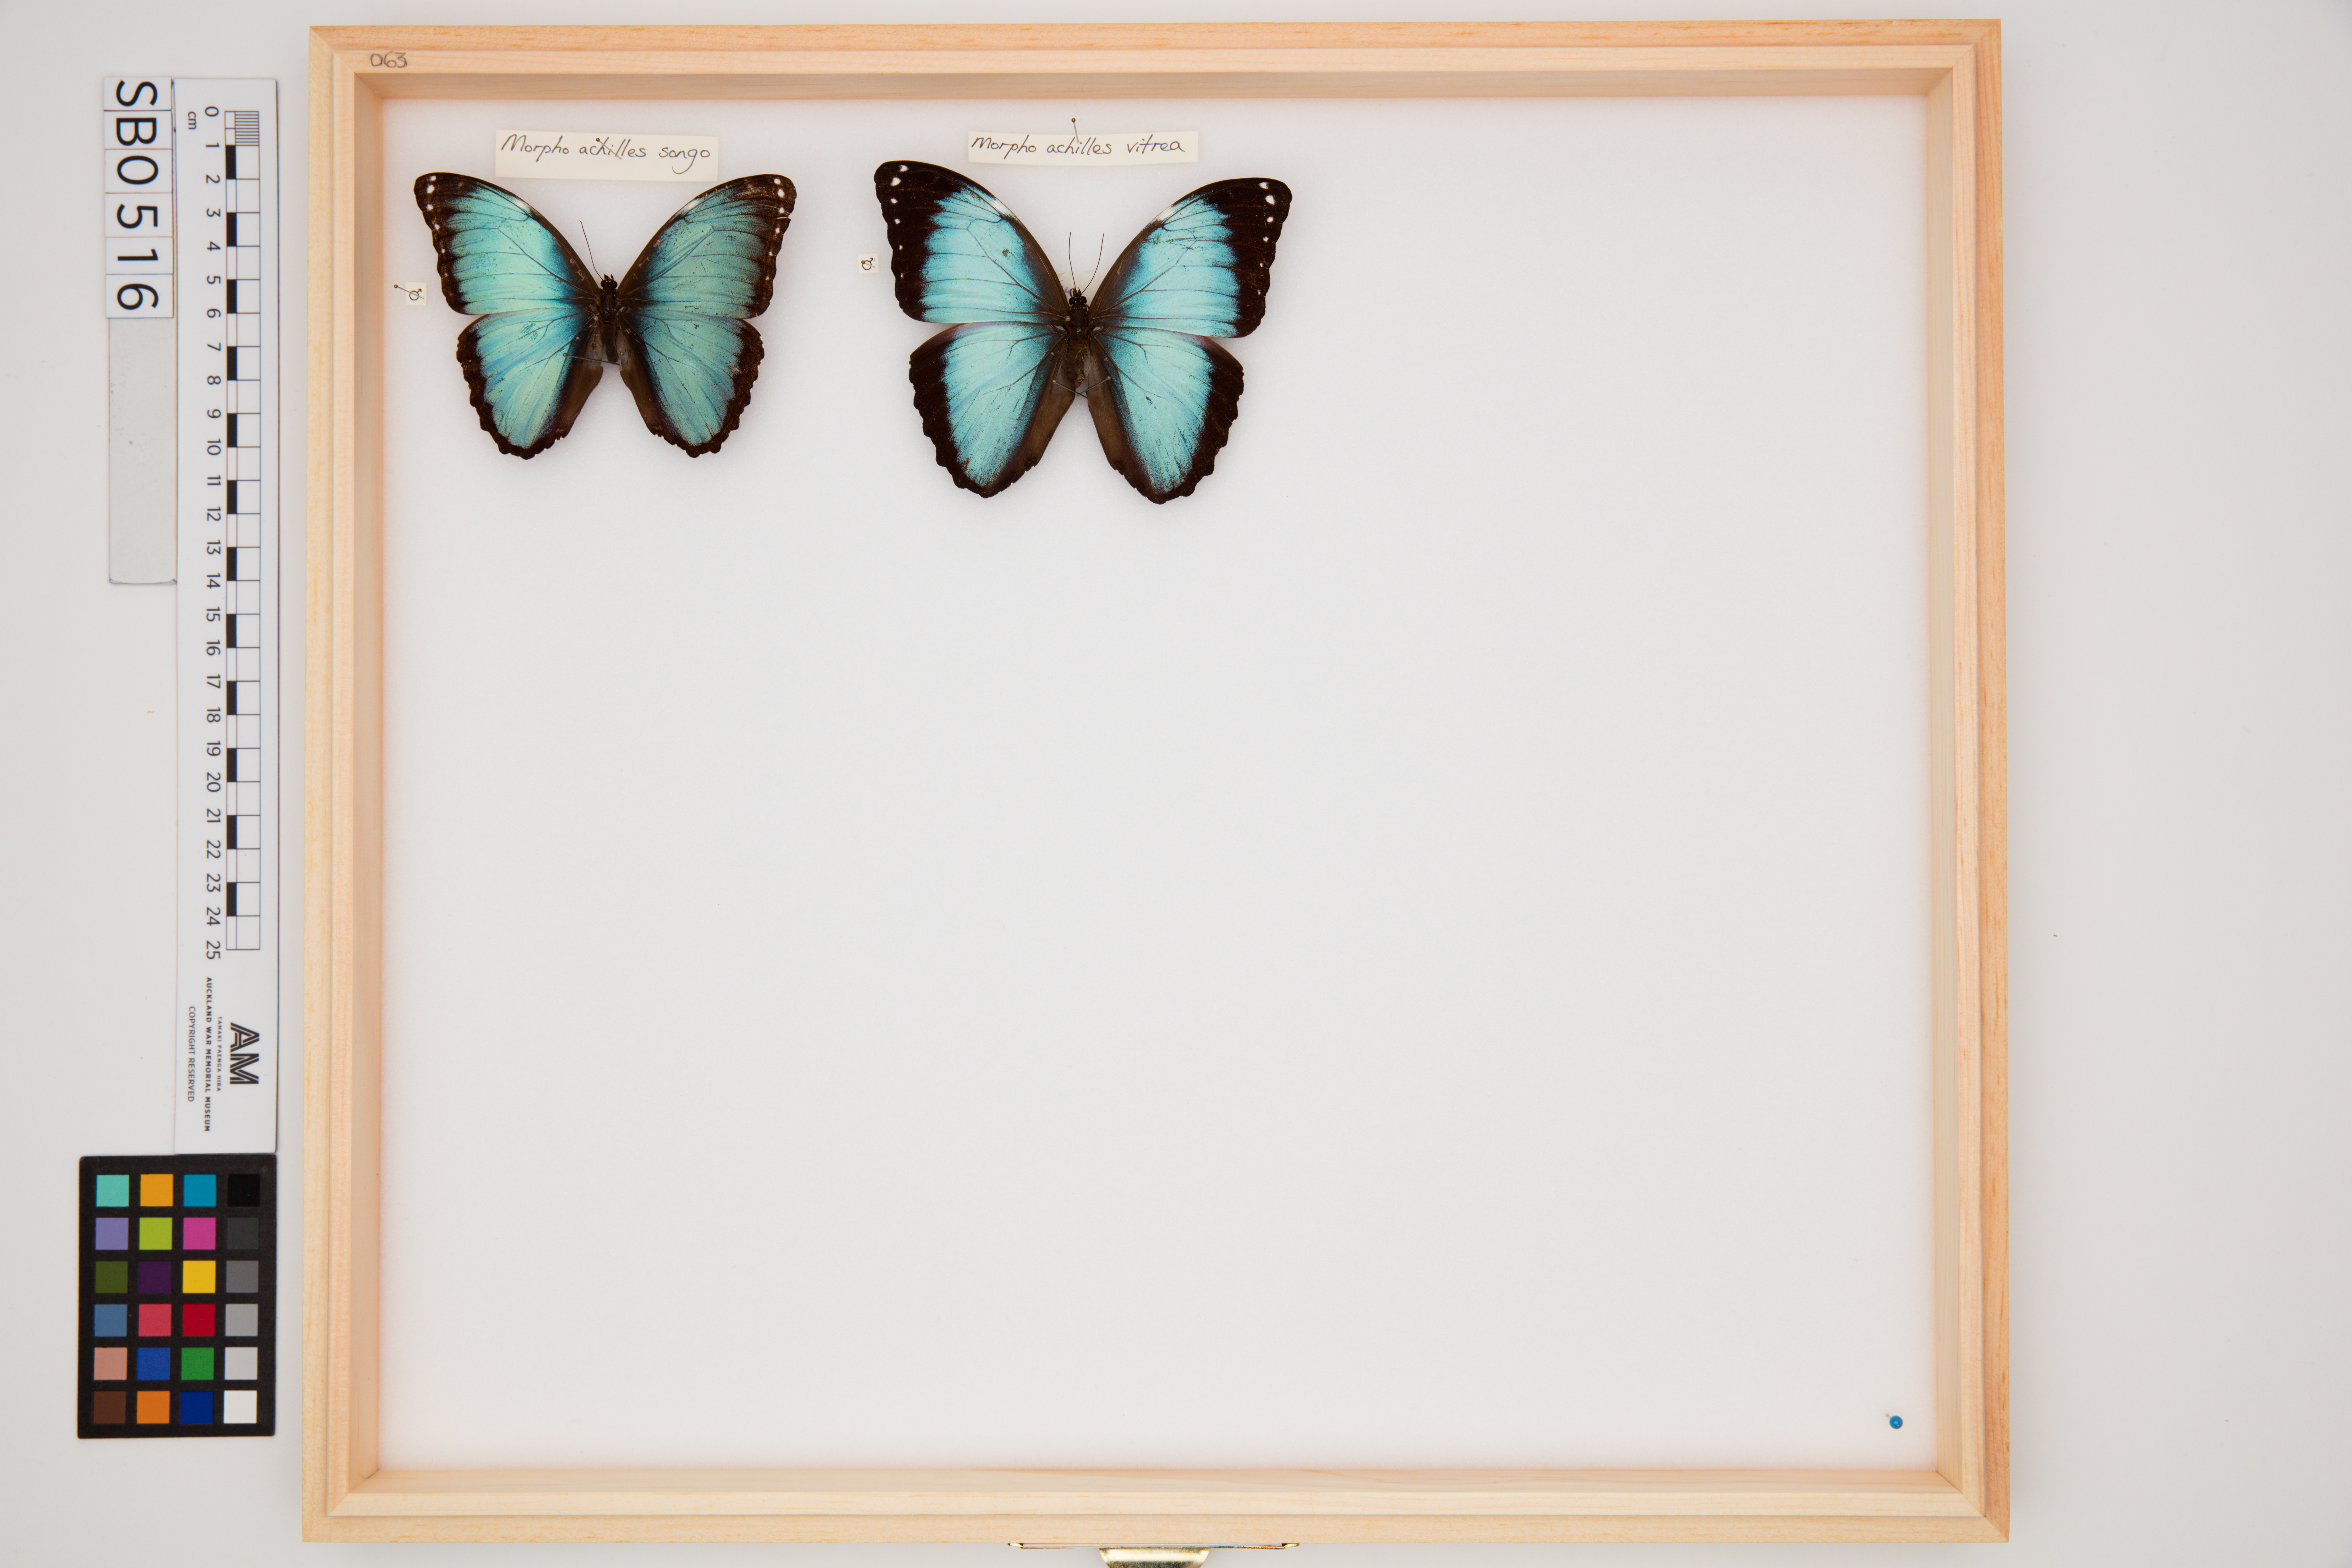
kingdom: Animalia
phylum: Arthropoda
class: Insecta
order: Lepidoptera
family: Nymphalidae
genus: Morpho
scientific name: Morpho achilles
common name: Achilles morpho
